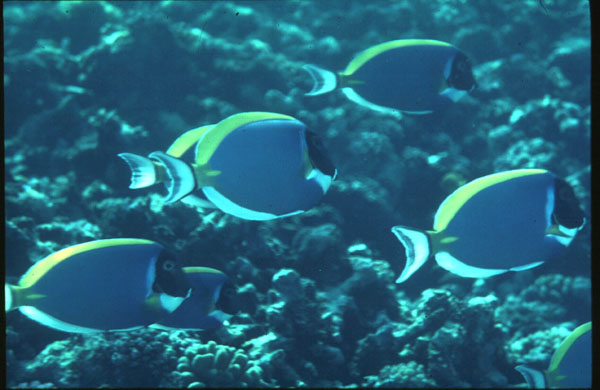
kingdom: Animalia
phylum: Chordata
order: Perciformes
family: Acanthuridae
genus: Acanthurus
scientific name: Acanthurus leucosternon
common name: Blue surgeonfish
